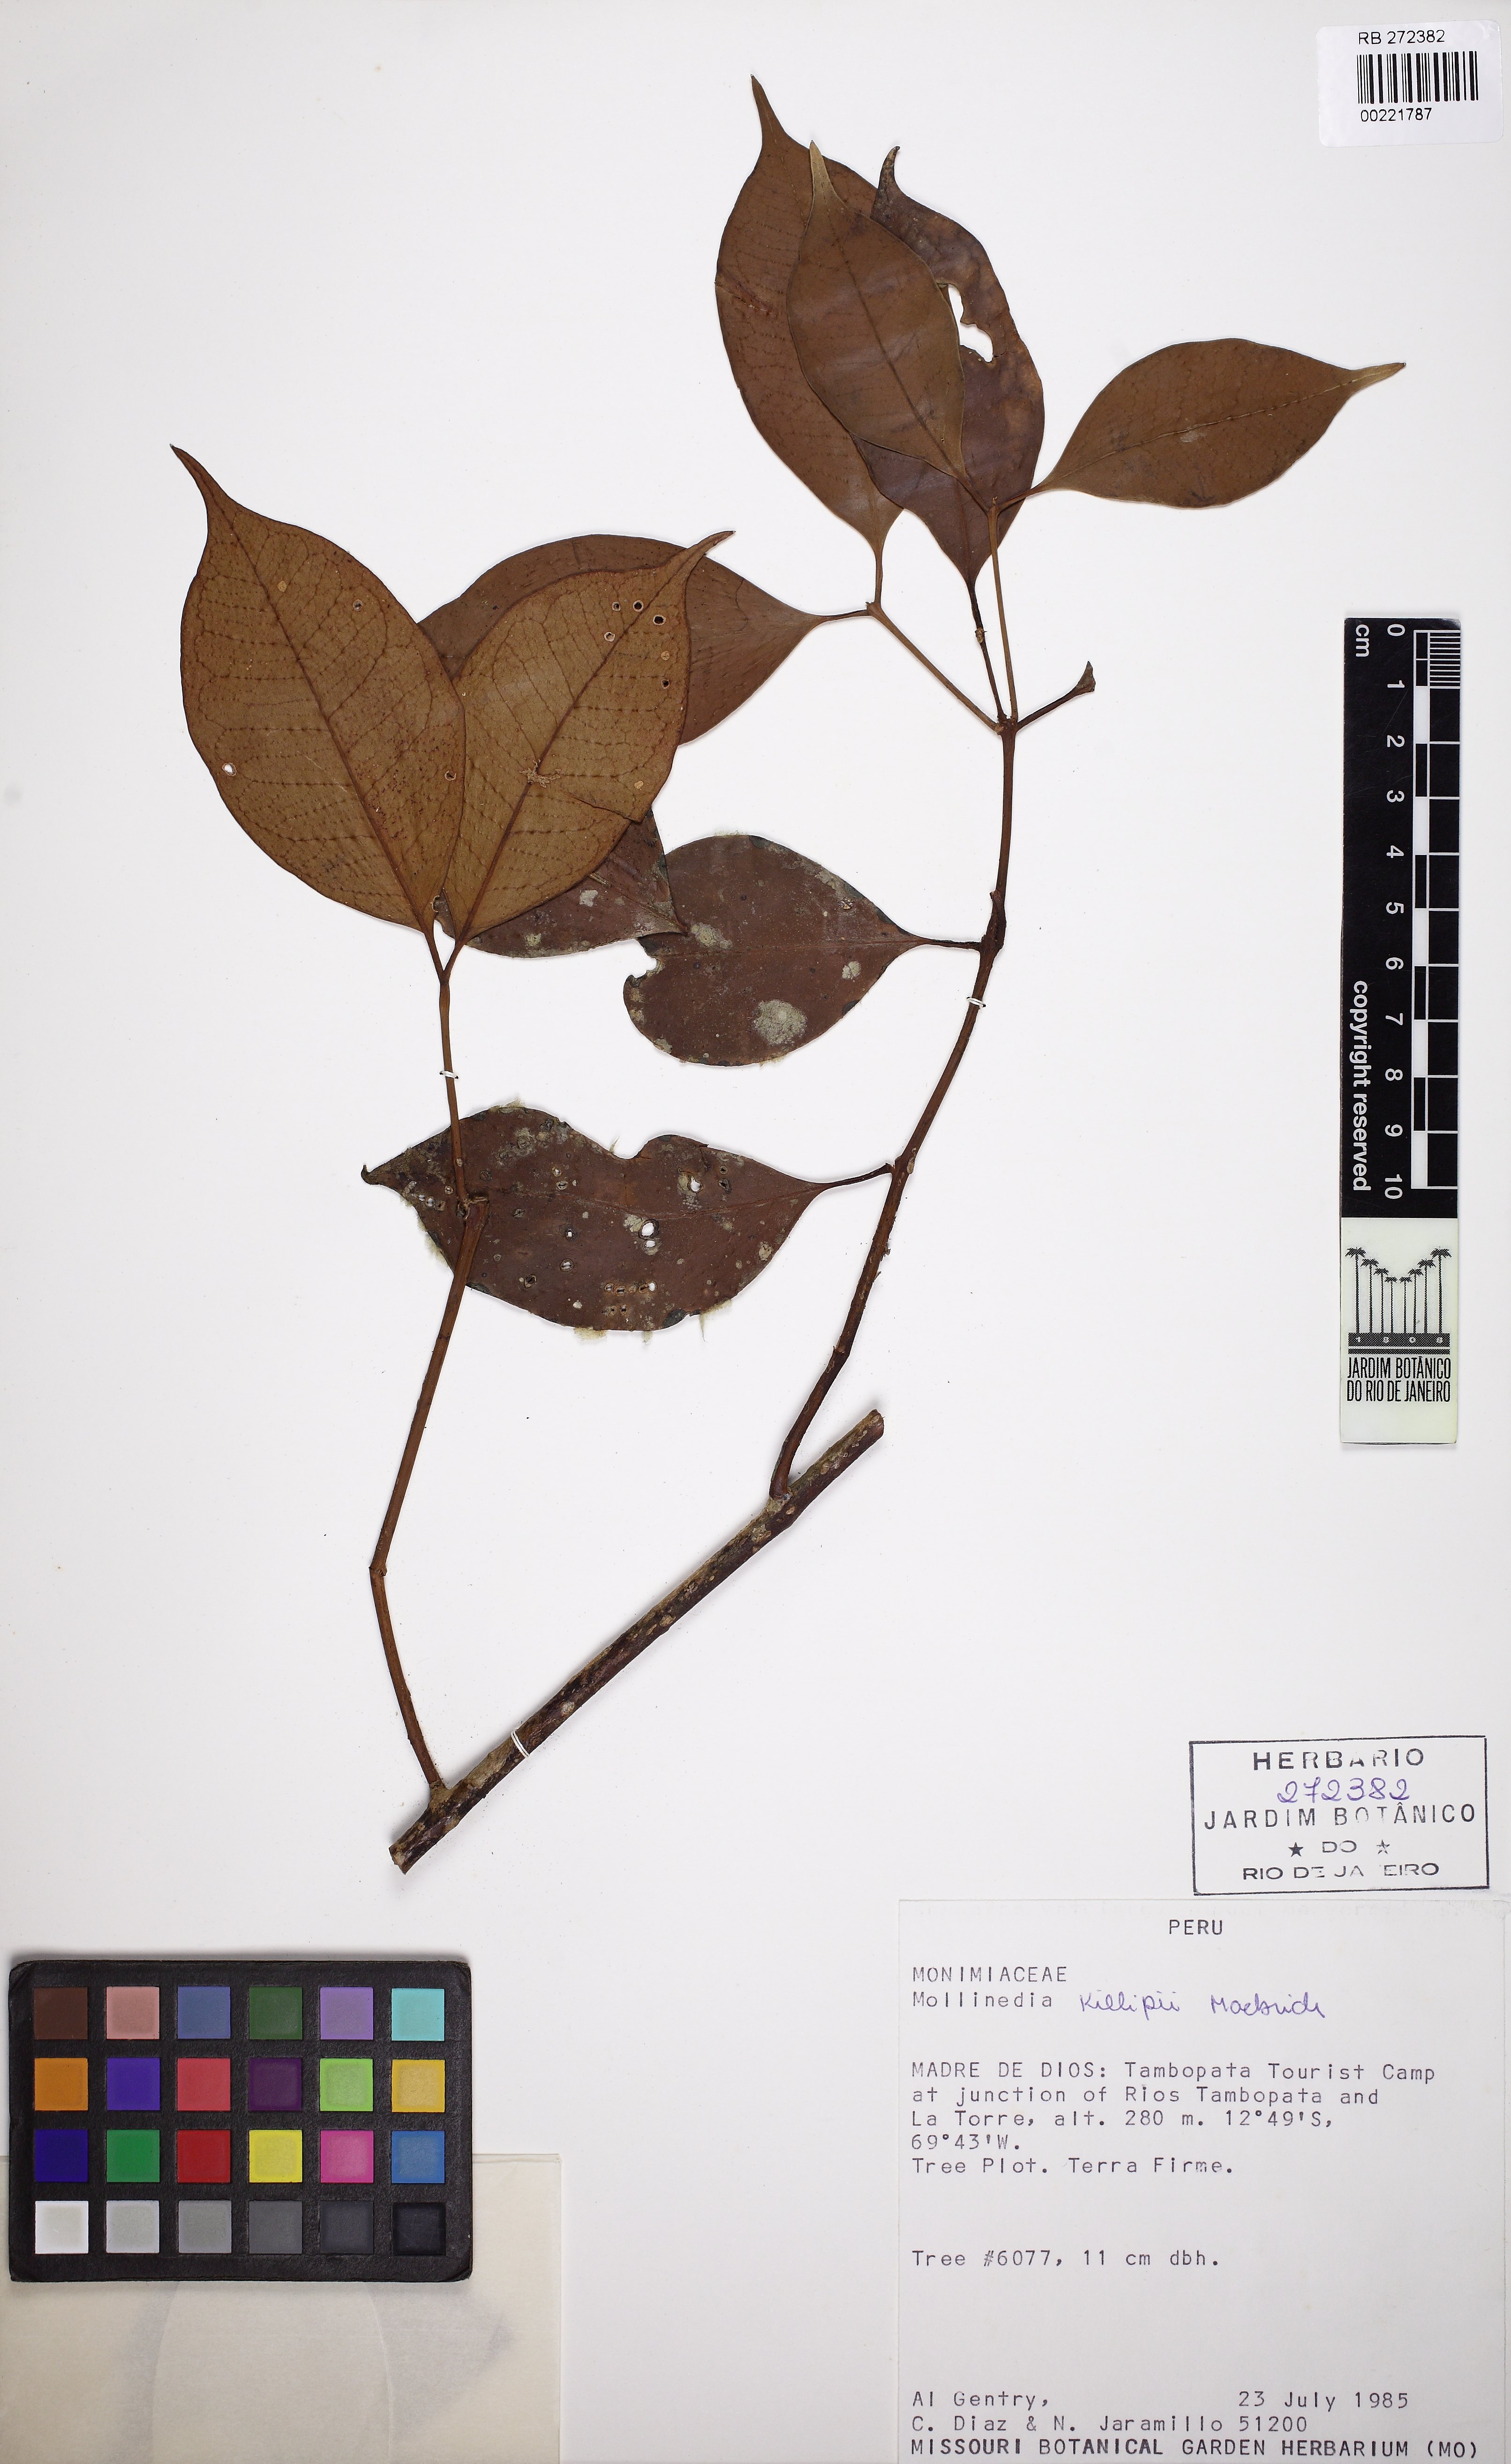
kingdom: Plantae
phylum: Tracheophyta
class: Magnoliopsida
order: Laurales
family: Monimiaceae
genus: Mollinedia
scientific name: Mollinedia killipii
